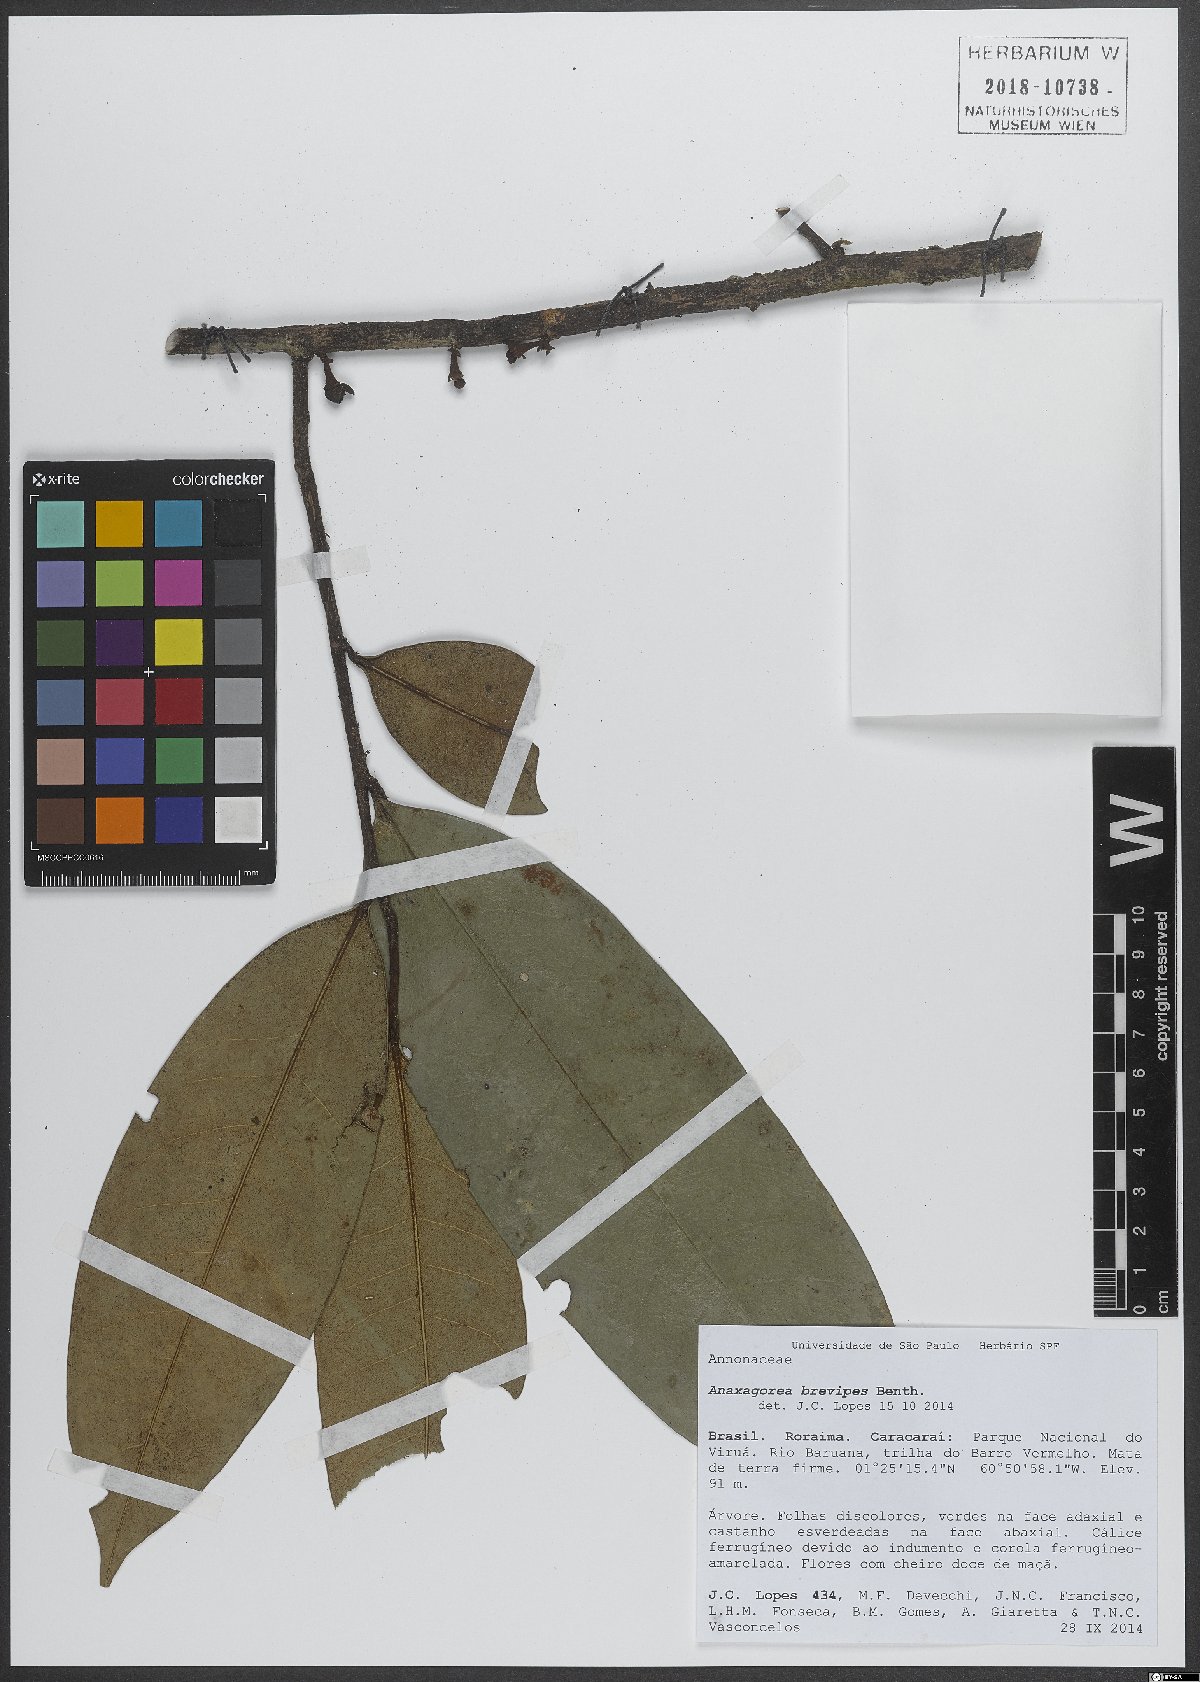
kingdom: Plantae
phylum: Tracheophyta
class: Magnoliopsida
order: Magnoliales
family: Annonaceae
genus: Anaxagorea
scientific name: Anaxagorea brevipes
